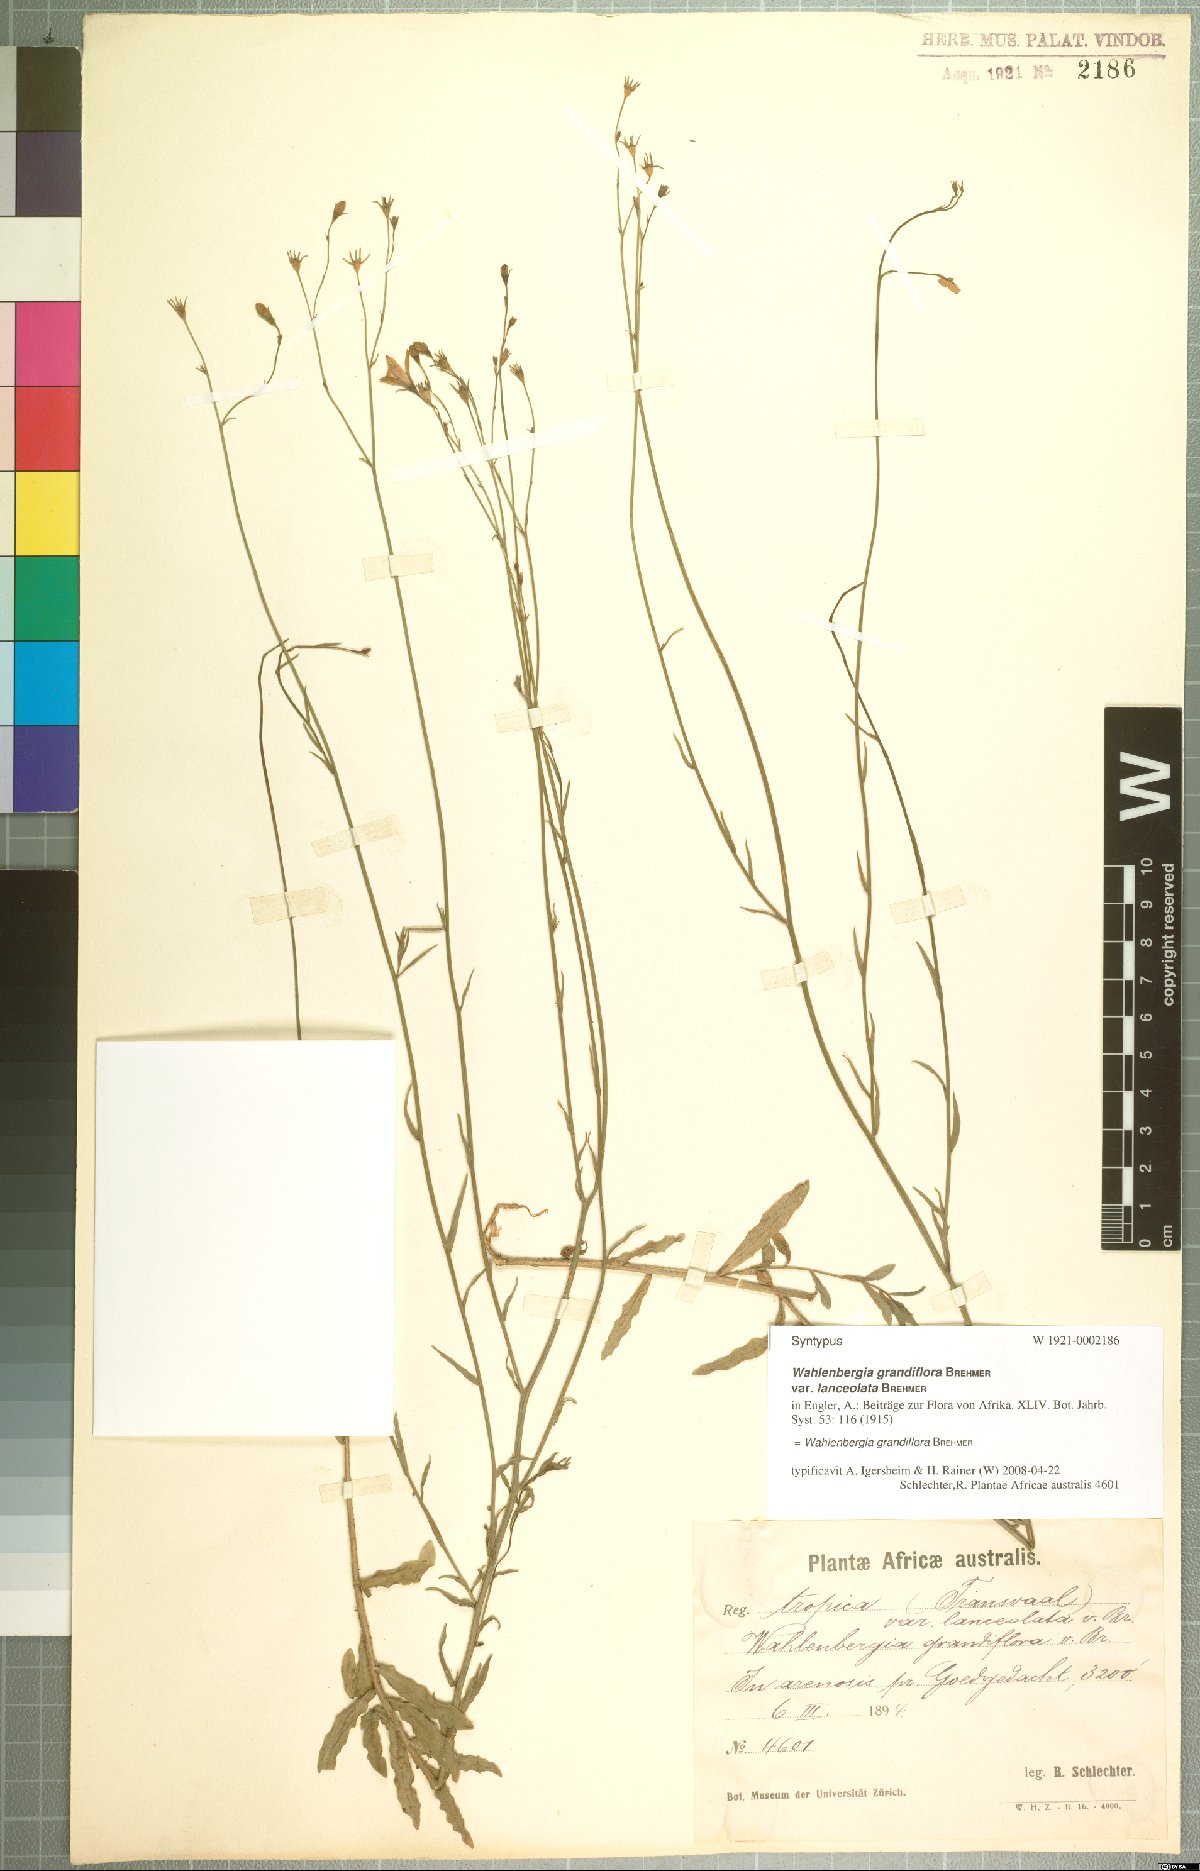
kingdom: Plantae
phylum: Tracheophyta
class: Magnoliopsida
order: Asterales
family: Campanulaceae
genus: Wahlenbergia
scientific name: Wahlenbergia grandiflora
